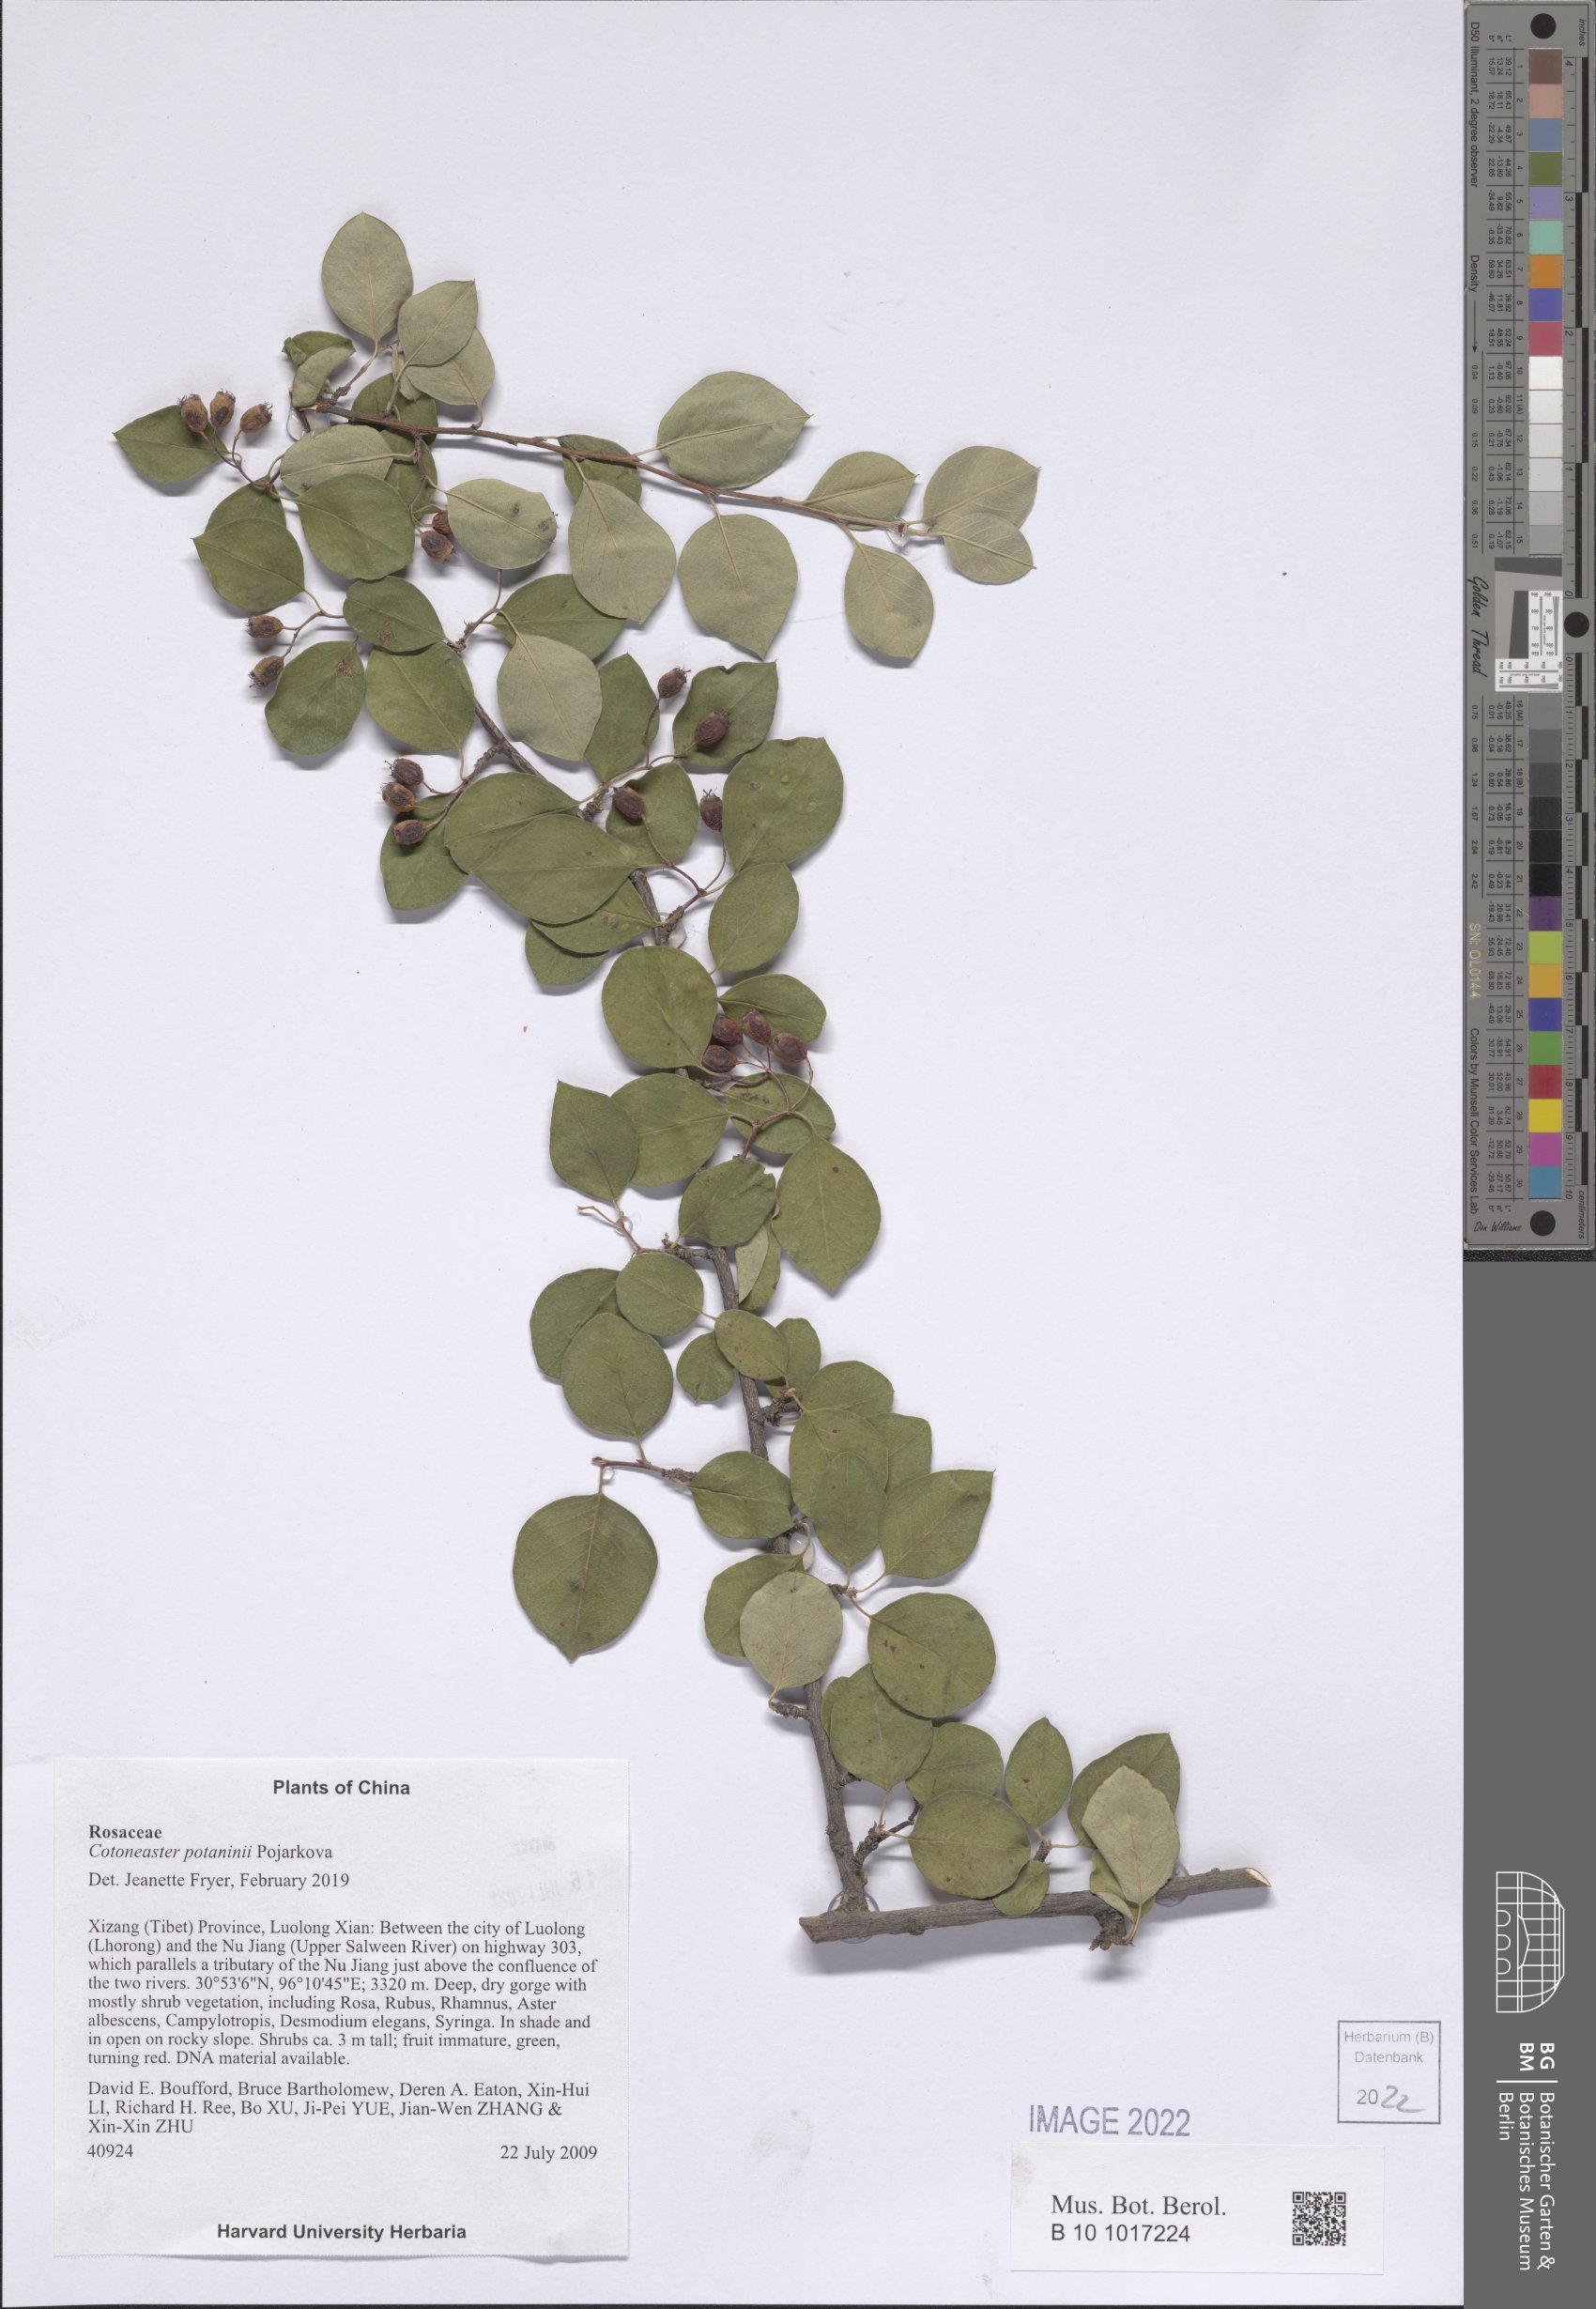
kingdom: Plantae
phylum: Tracheophyta
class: Magnoliopsida
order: Rosales
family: Rosaceae
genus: Cotoneaster
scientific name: Cotoneaster microcarpus
